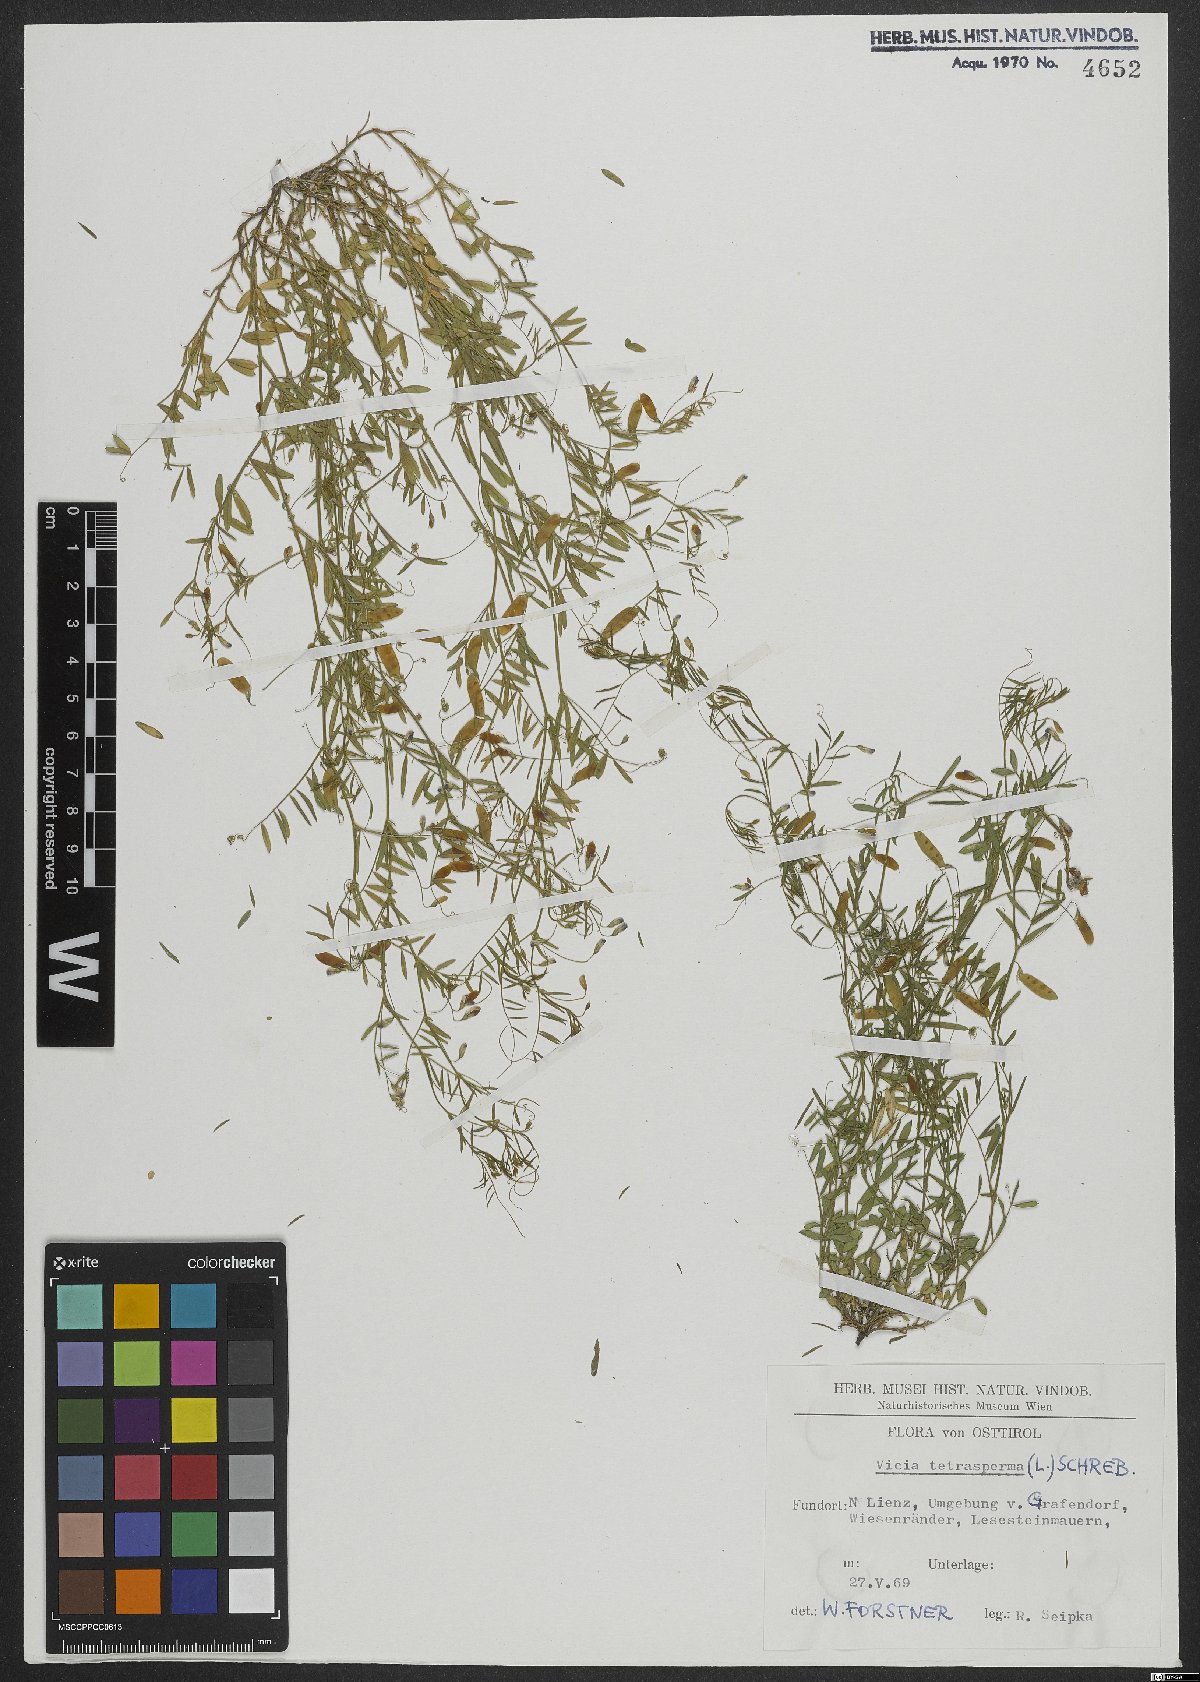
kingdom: Plantae
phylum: Tracheophyta
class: Magnoliopsida
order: Fabales
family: Fabaceae
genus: Vicia
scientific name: Vicia tetrasperma
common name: Smooth tare
